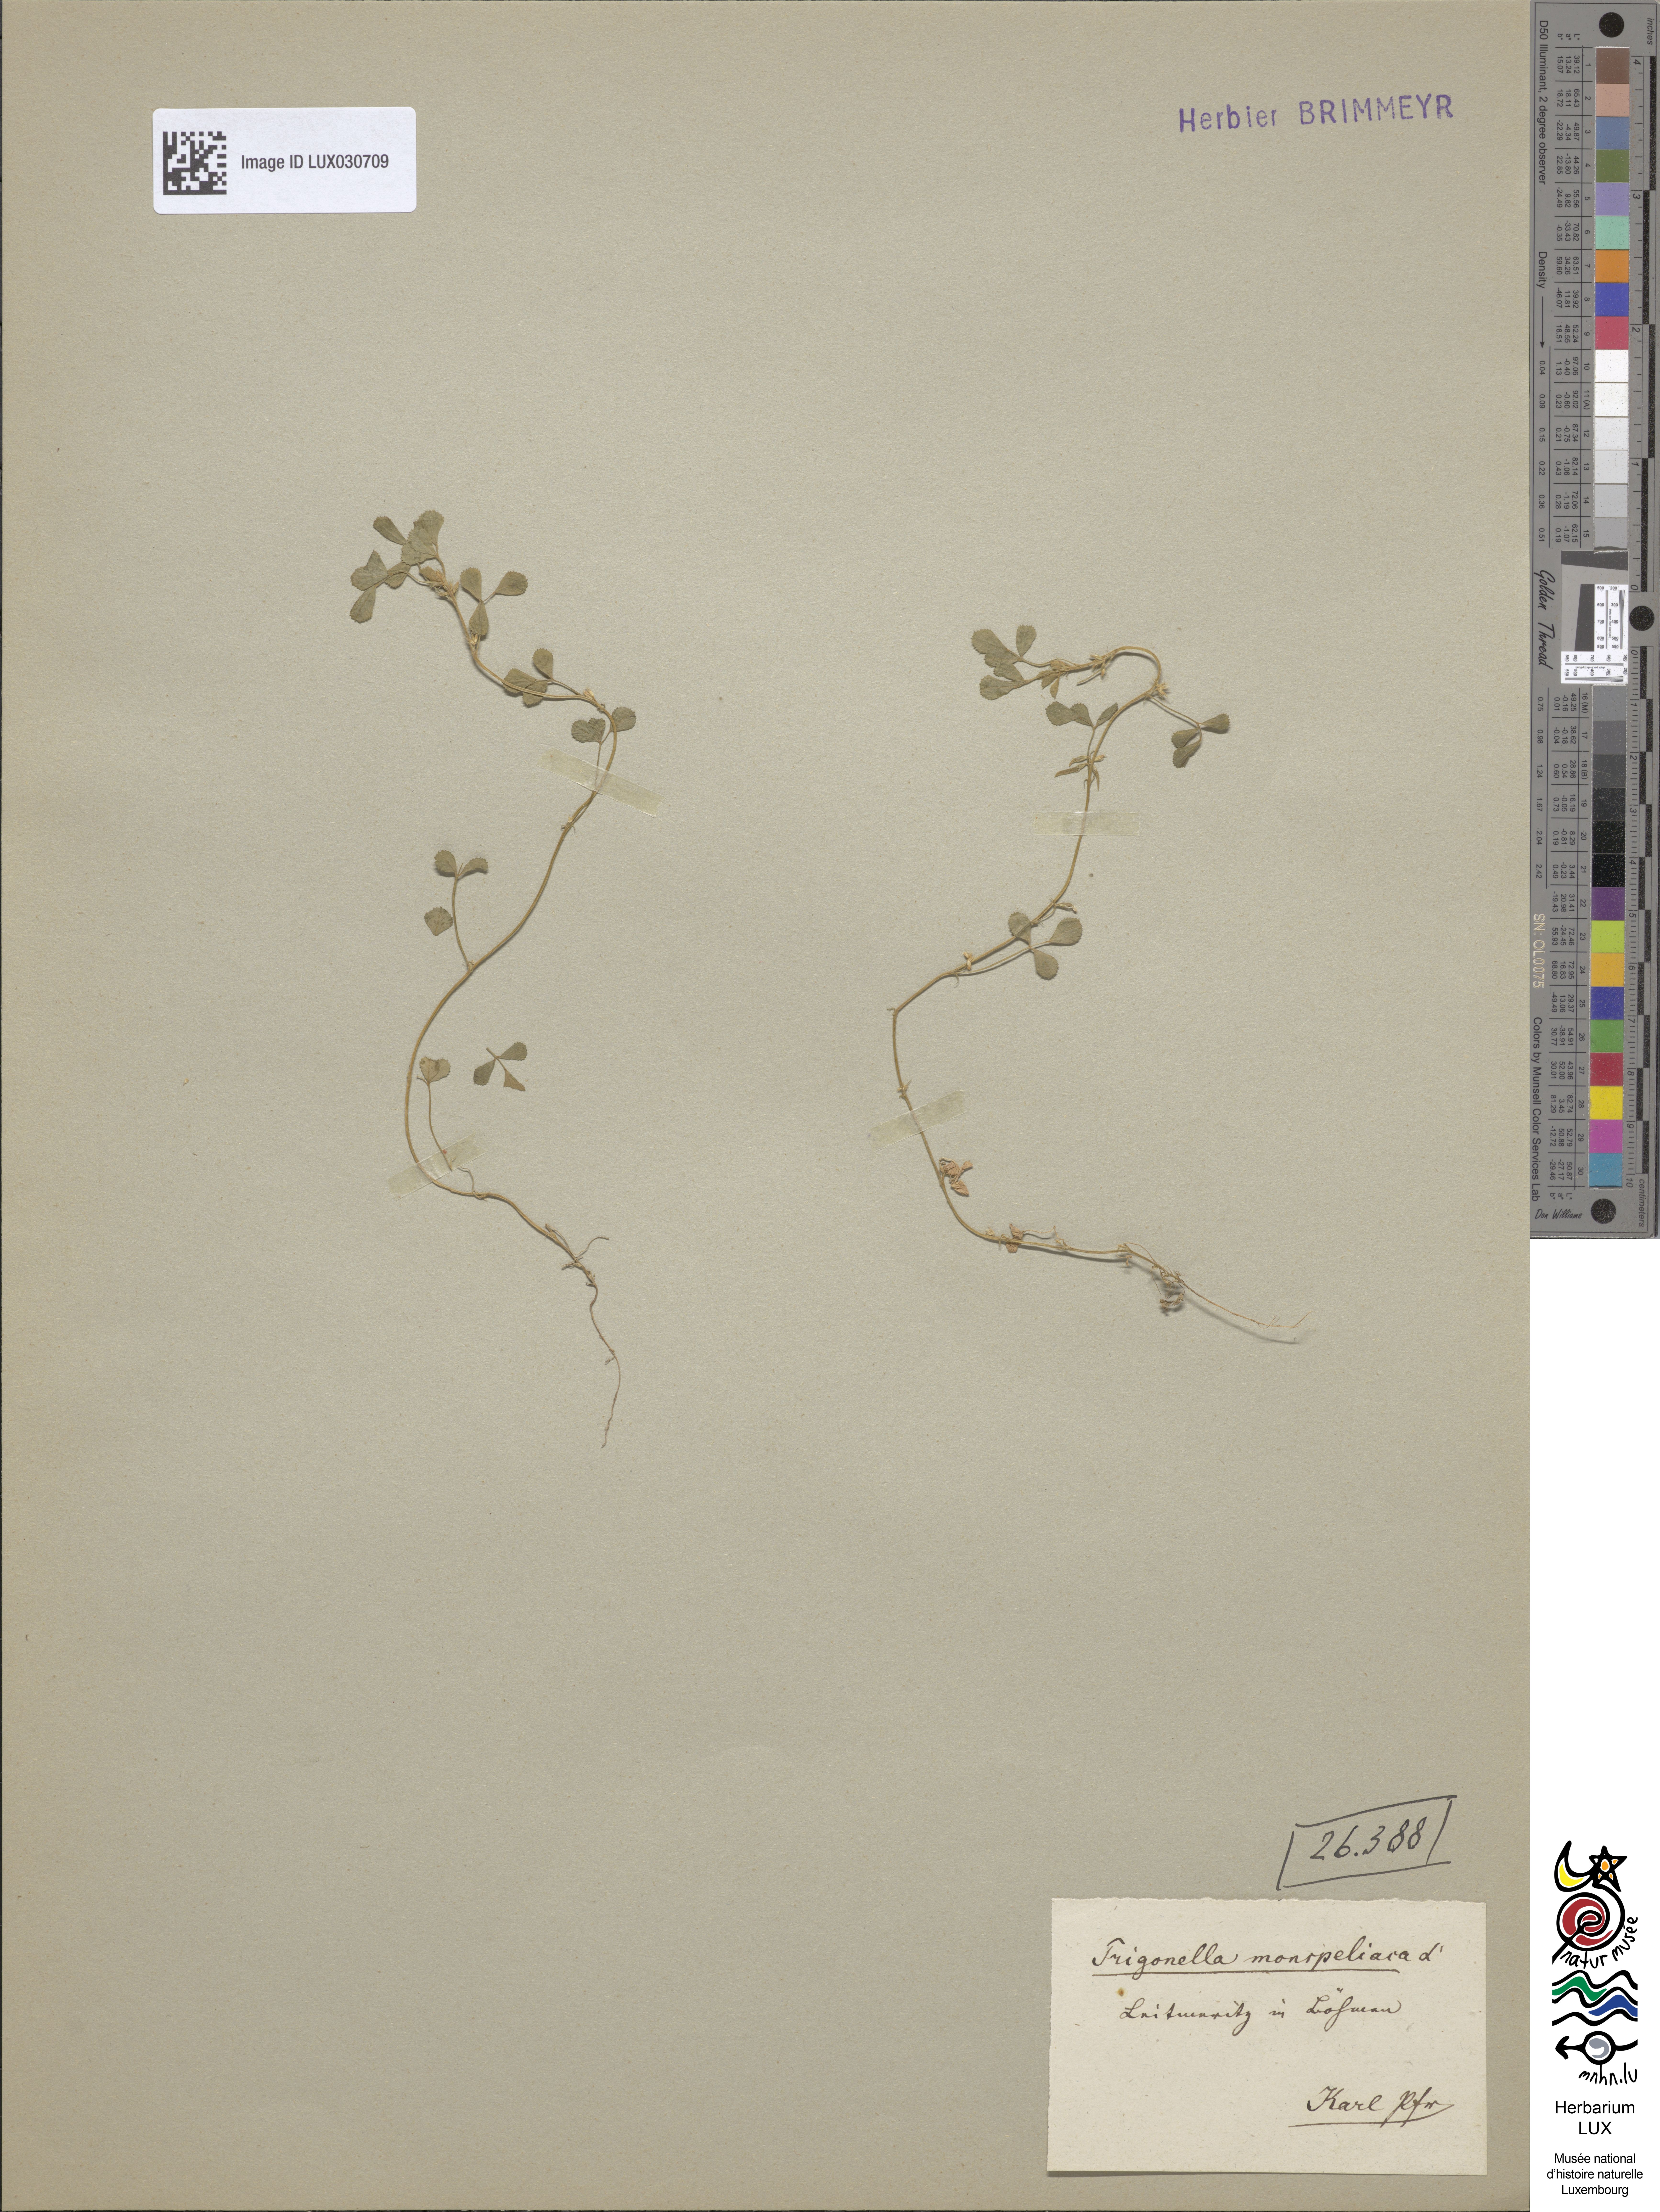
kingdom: Plantae
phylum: Tracheophyta
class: Magnoliopsida
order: Fabales
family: Fabaceae
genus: Medicago
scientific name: Medicago monspeliaca
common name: Hairy medick
